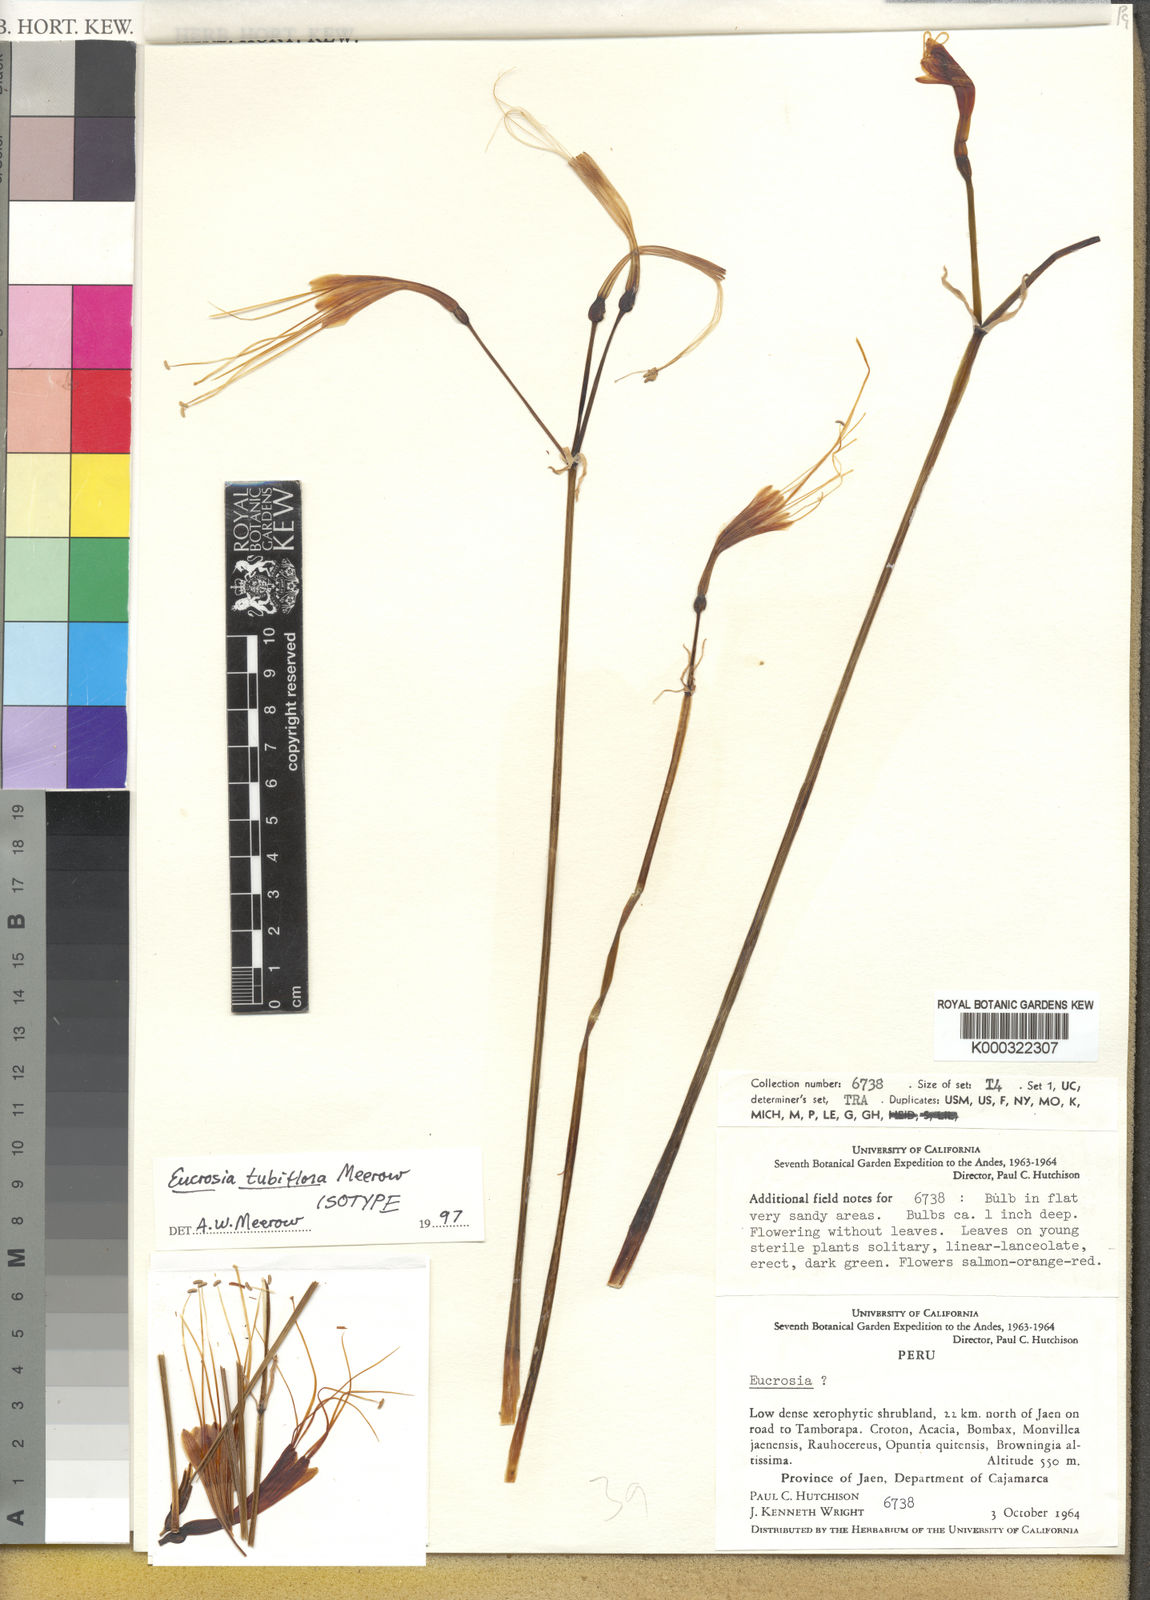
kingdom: Plantae
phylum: Tracheophyta
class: Liliopsida
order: Asparagales
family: Amaryllidaceae
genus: Stenomesson
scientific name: Stenomesson tubiflorum
